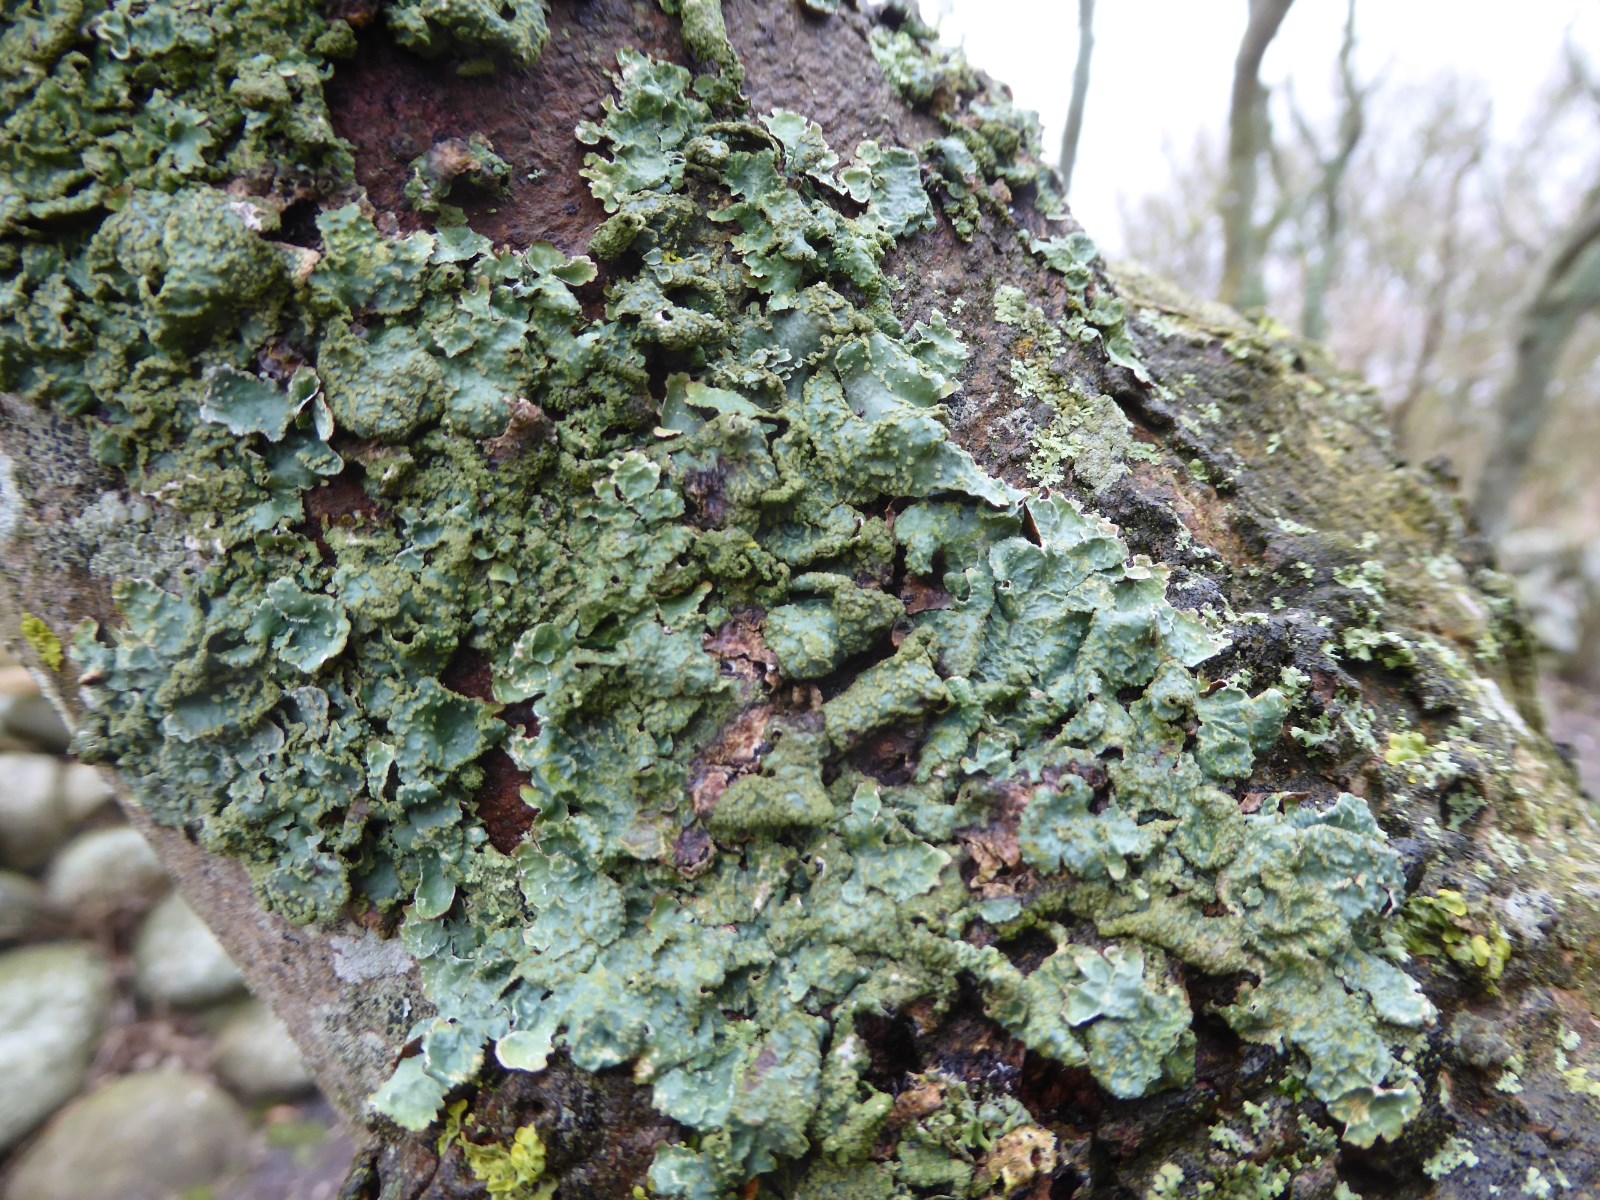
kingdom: Fungi
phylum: Ascomycota
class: Lecanoromycetes
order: Lecanorales
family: Parmeliaceae
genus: Parmelia
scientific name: Parmelia sulcata
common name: rynket skållav
